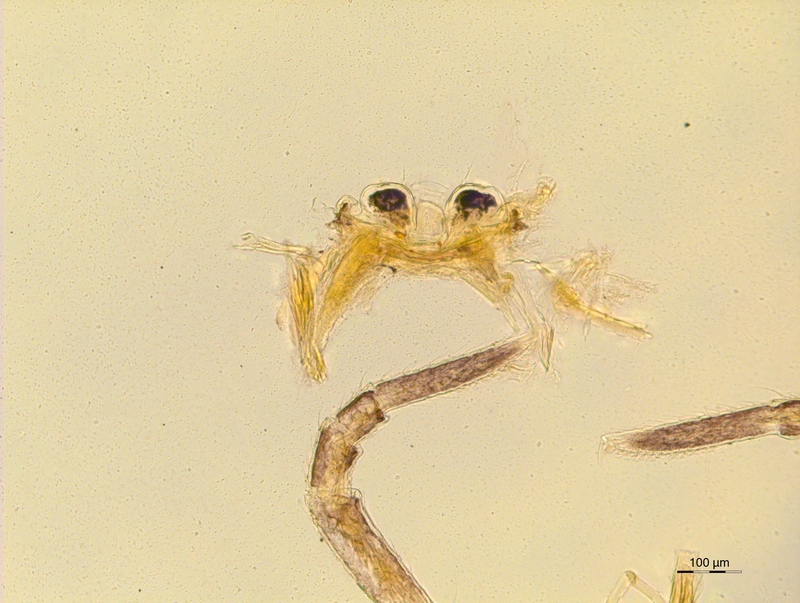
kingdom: Animalia
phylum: Arthropoda
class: Diplopoda
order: Chordeumatida
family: Craspedosomatidae
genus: Rothenbuehleria
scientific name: Rothenbuehleria tirolense
